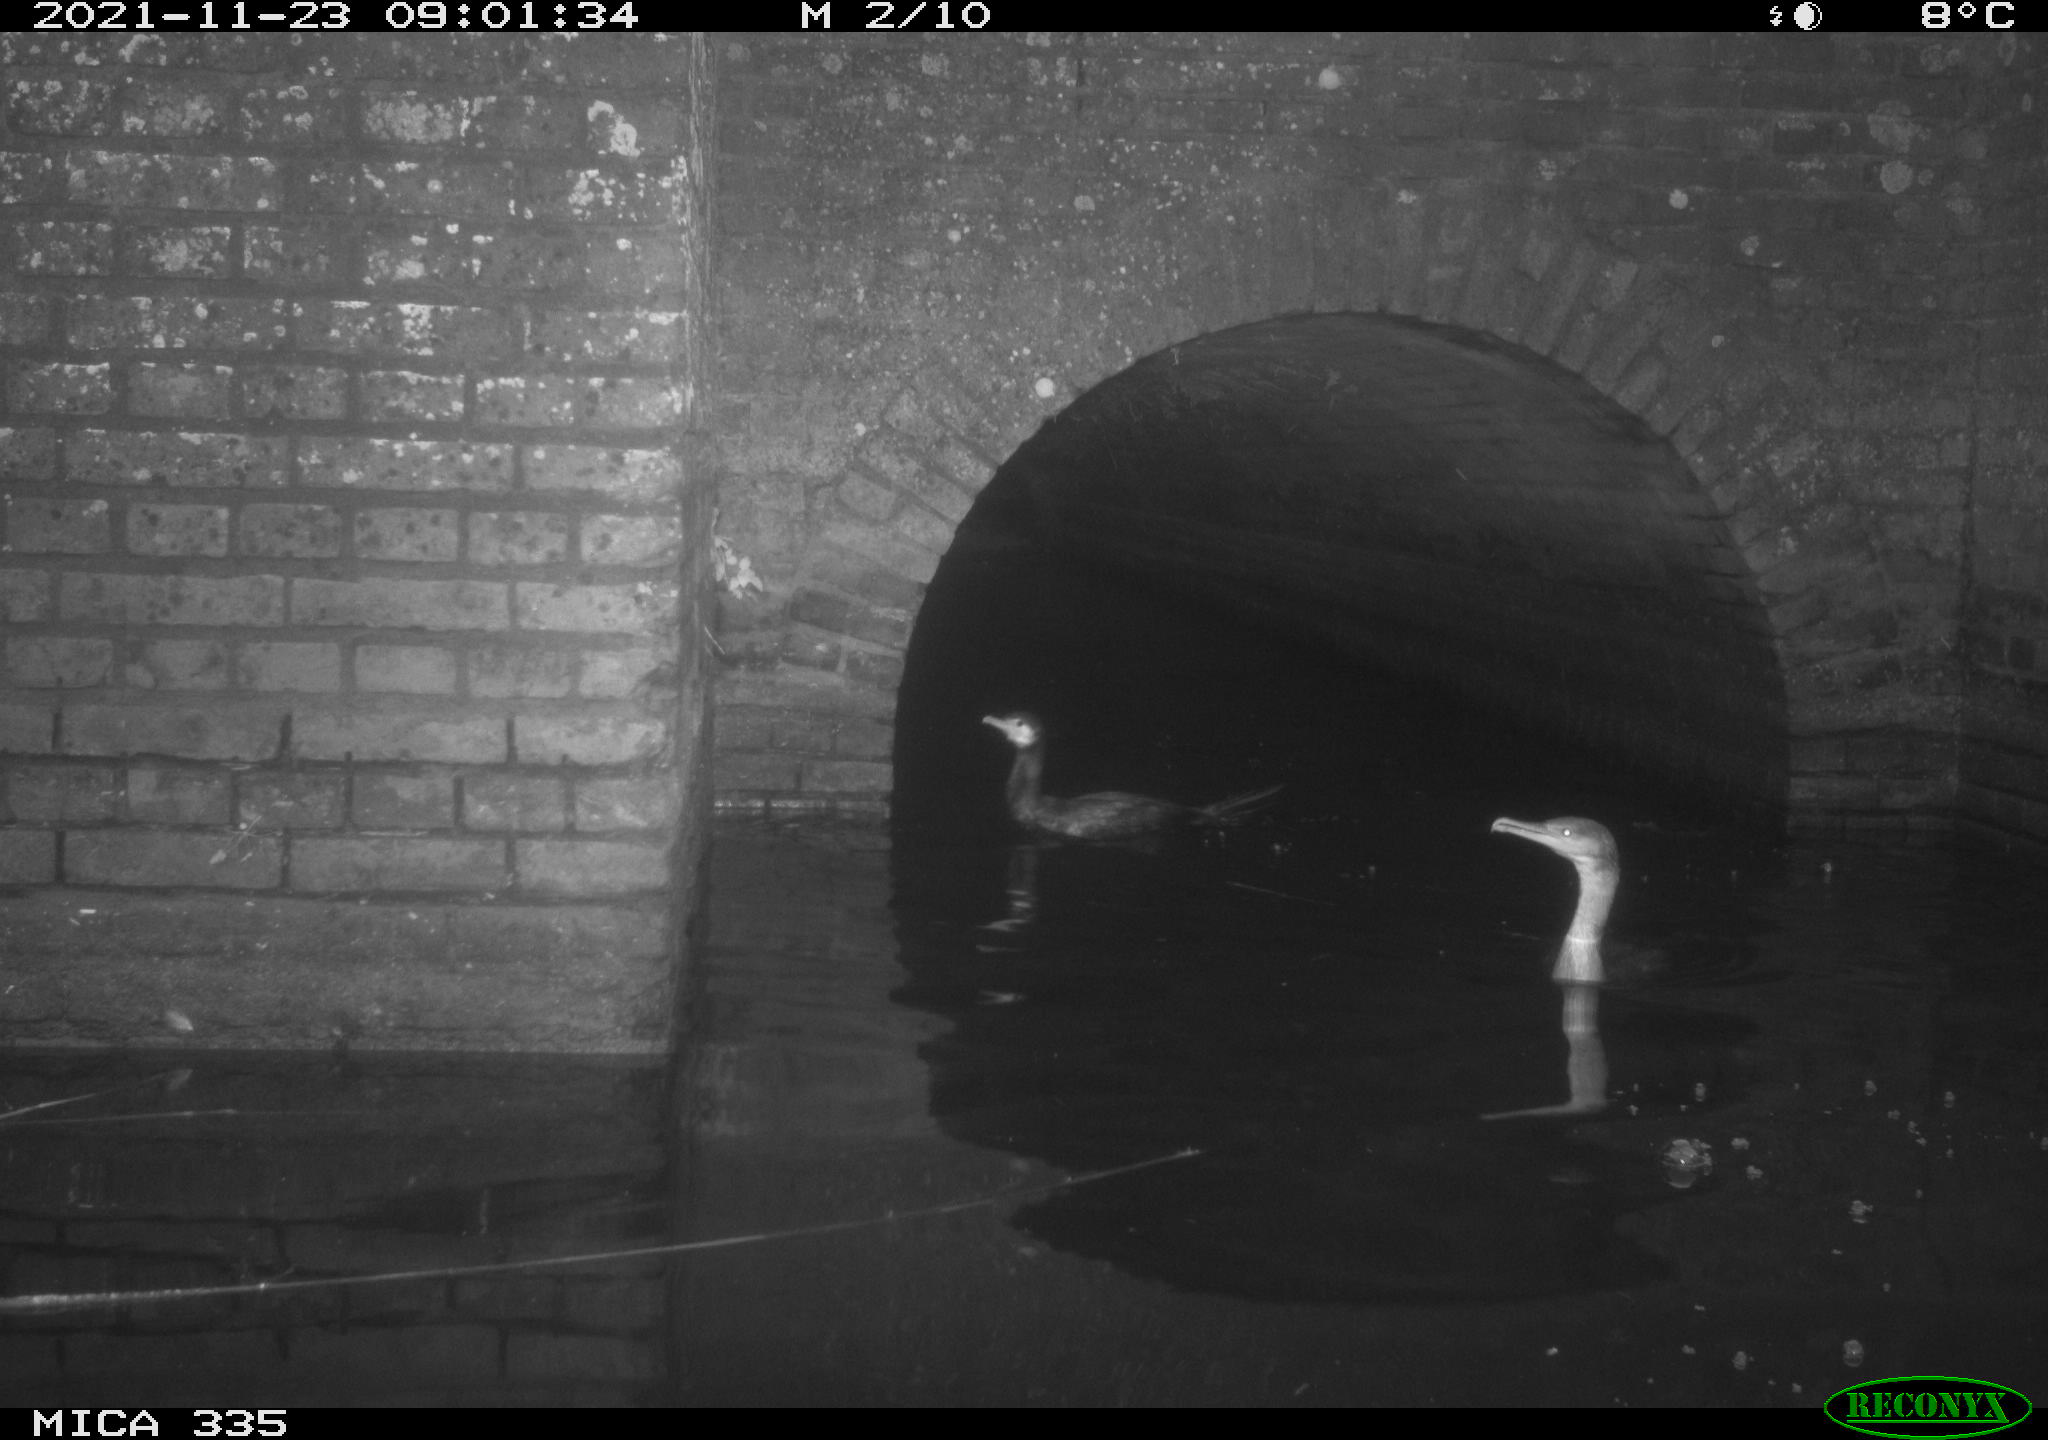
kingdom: Animalia
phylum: Chordata
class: Aves
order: Suliformes
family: Phalacrocoracidae
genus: Phalacrocorax
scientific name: Phalacrocorax carbo
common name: Great cormorant
